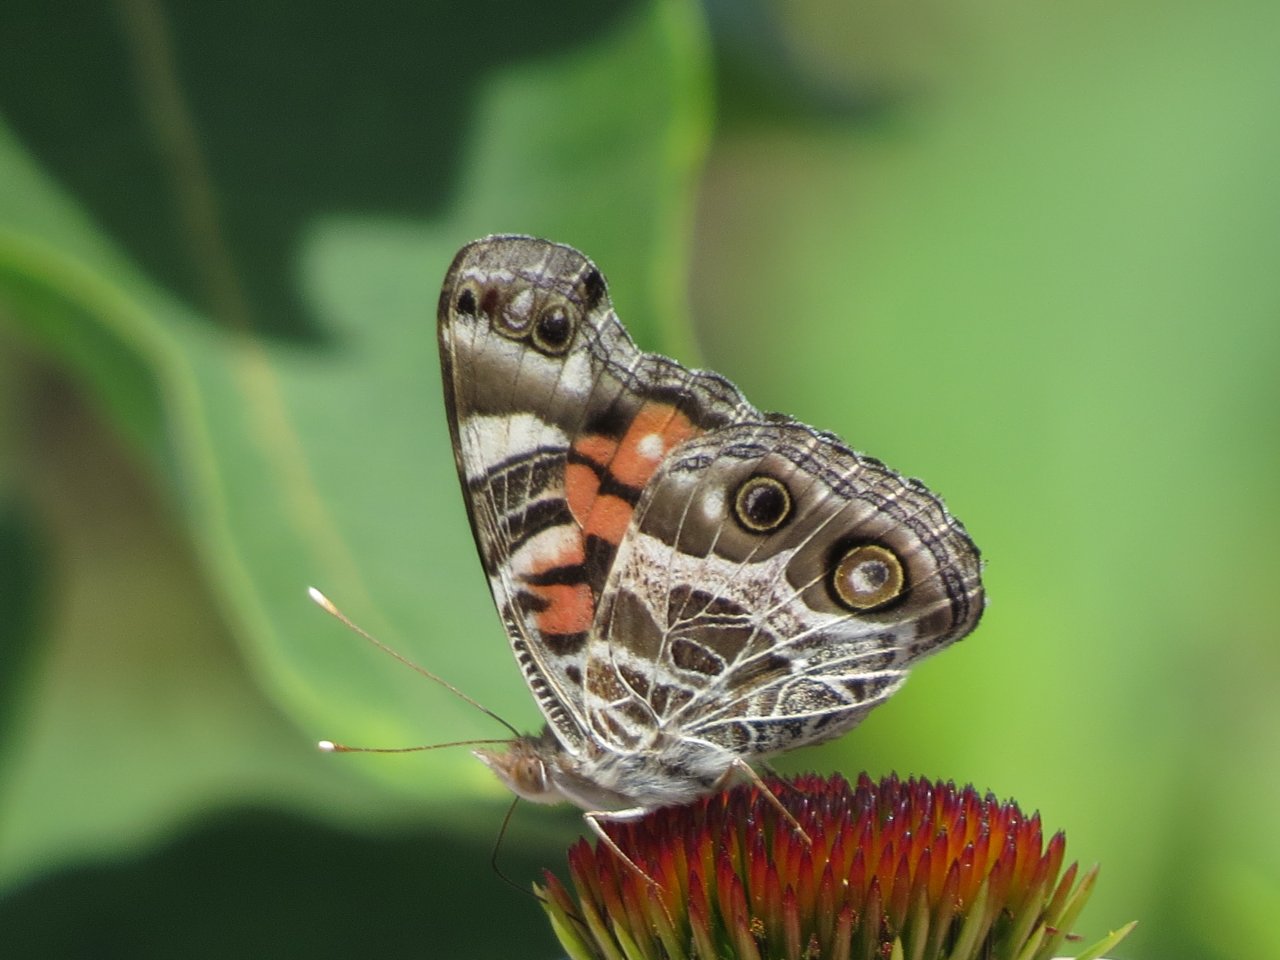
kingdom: Animalia
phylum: Arthropoda
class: Insecta
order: Lepidoptera
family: Nymphalidae
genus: Vanessa
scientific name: Vanessa virginiensis
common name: American Lady
